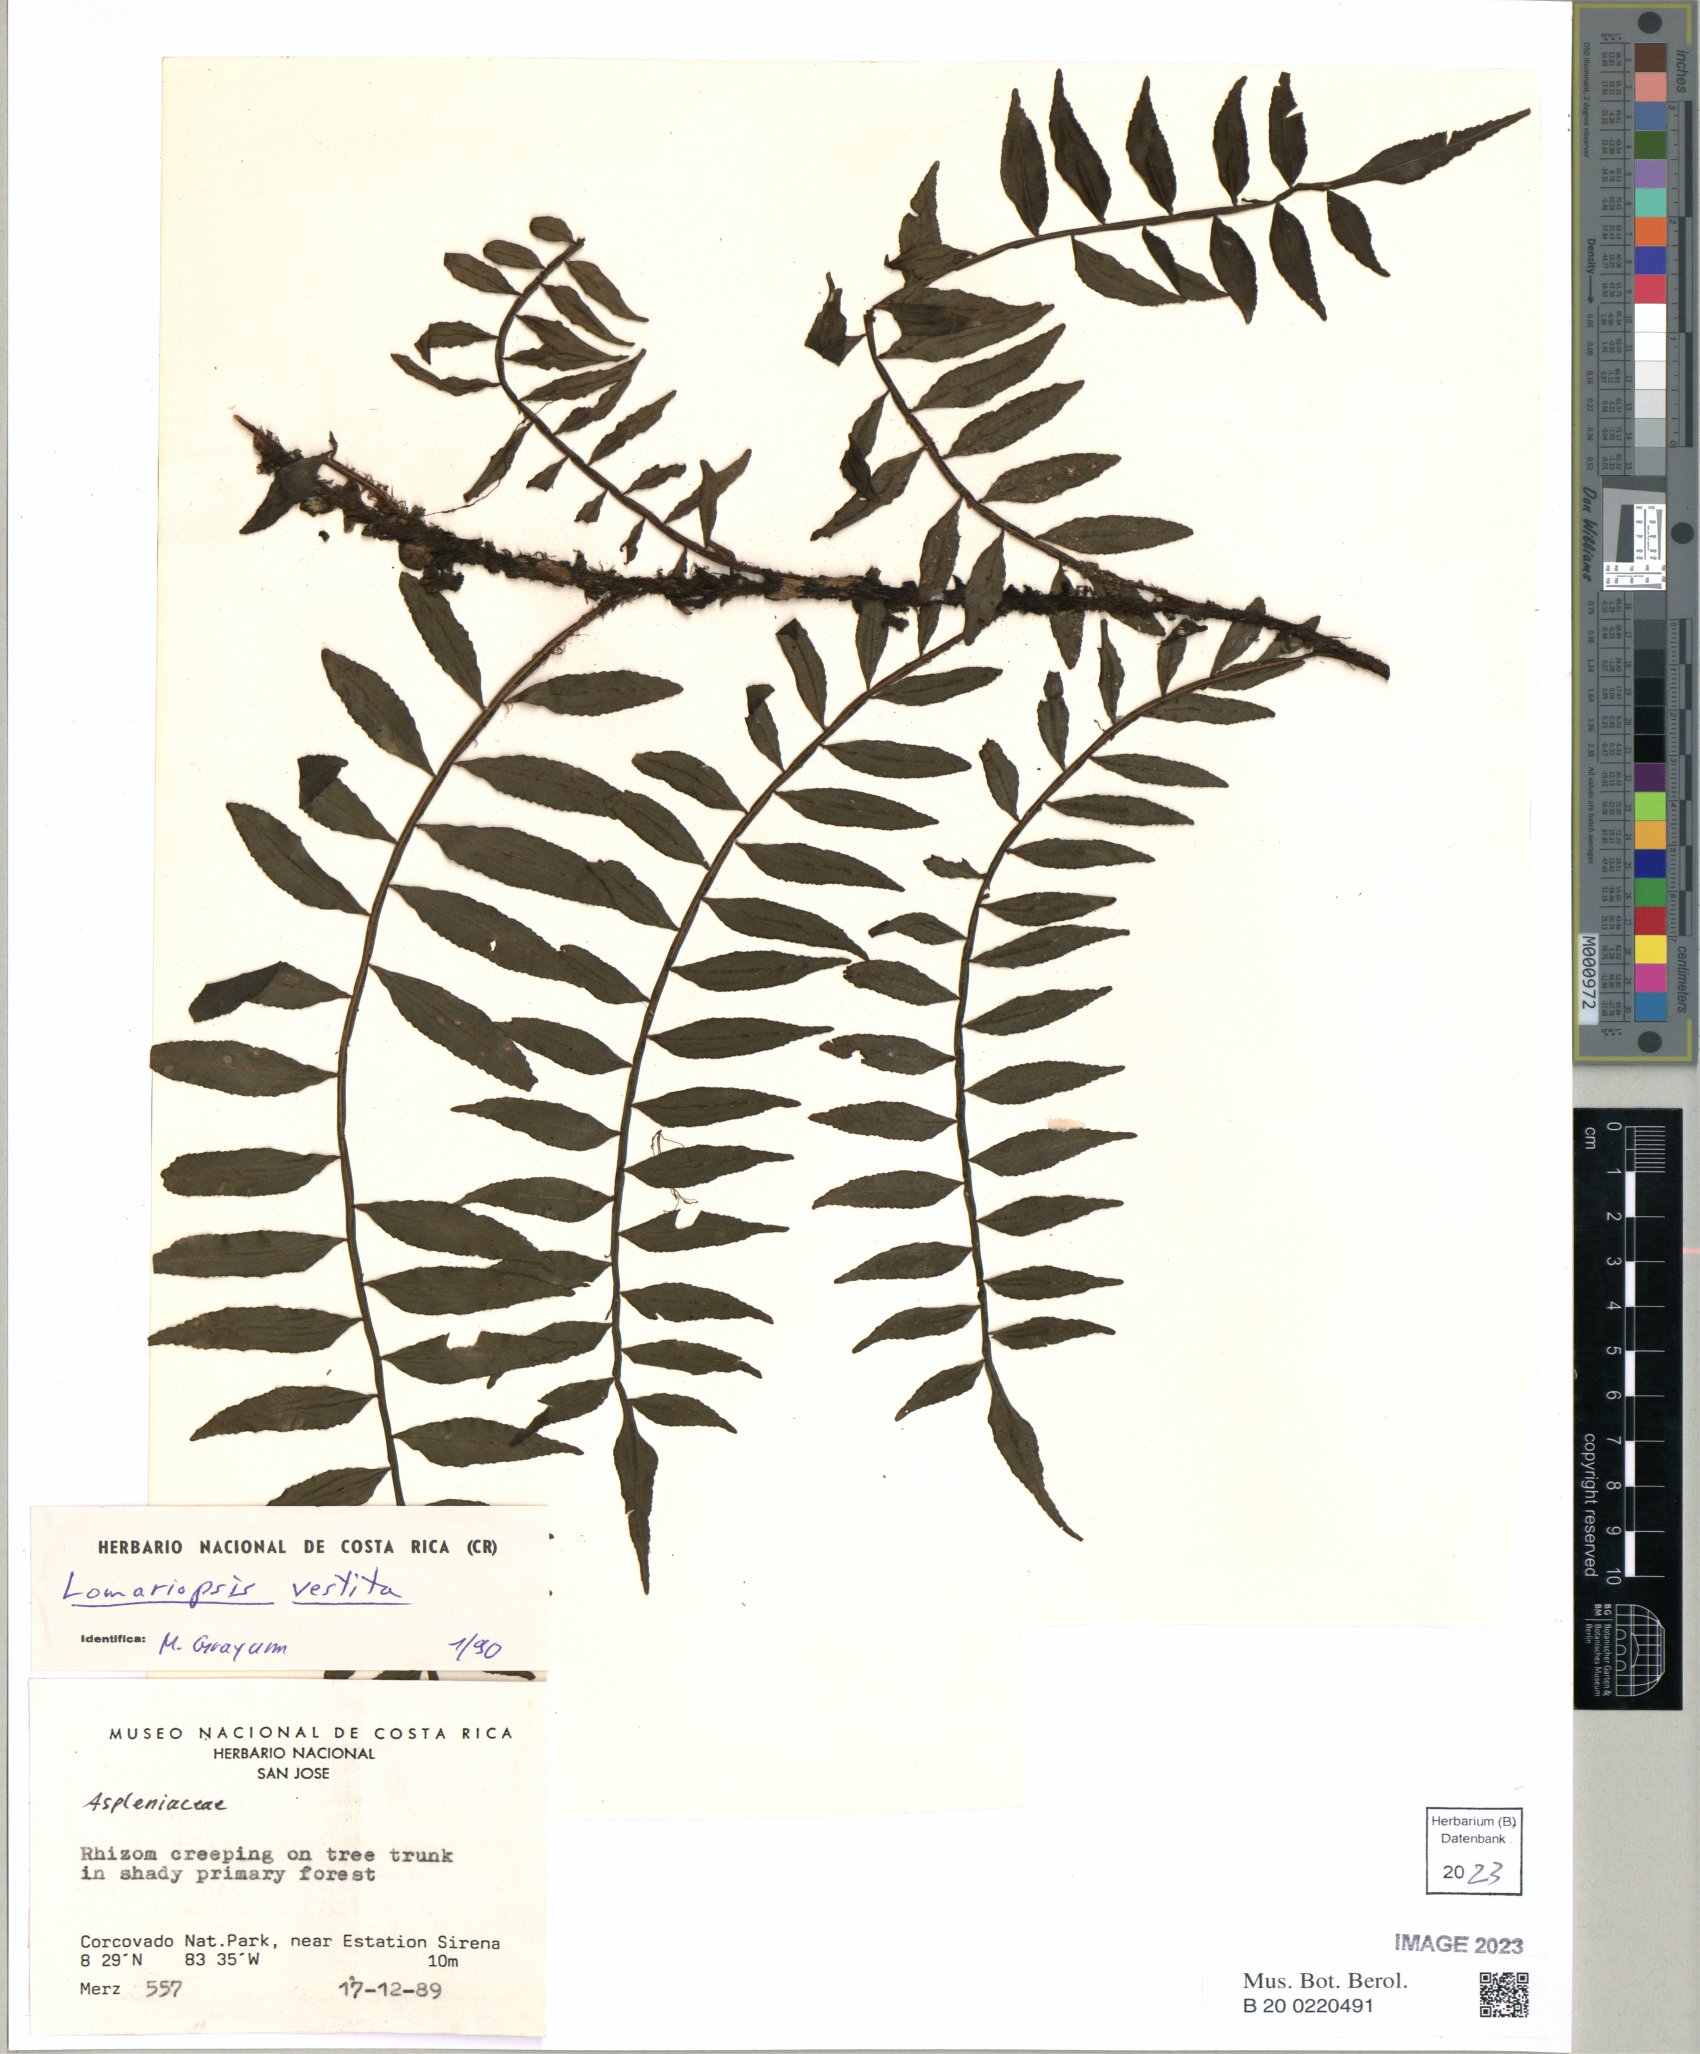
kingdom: Plantae
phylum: Tracheophyta
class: Polypodiopsida
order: Polypodiales
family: Lomariopsidaceae
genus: Lomariopsis
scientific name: Lomariopsis vestita
